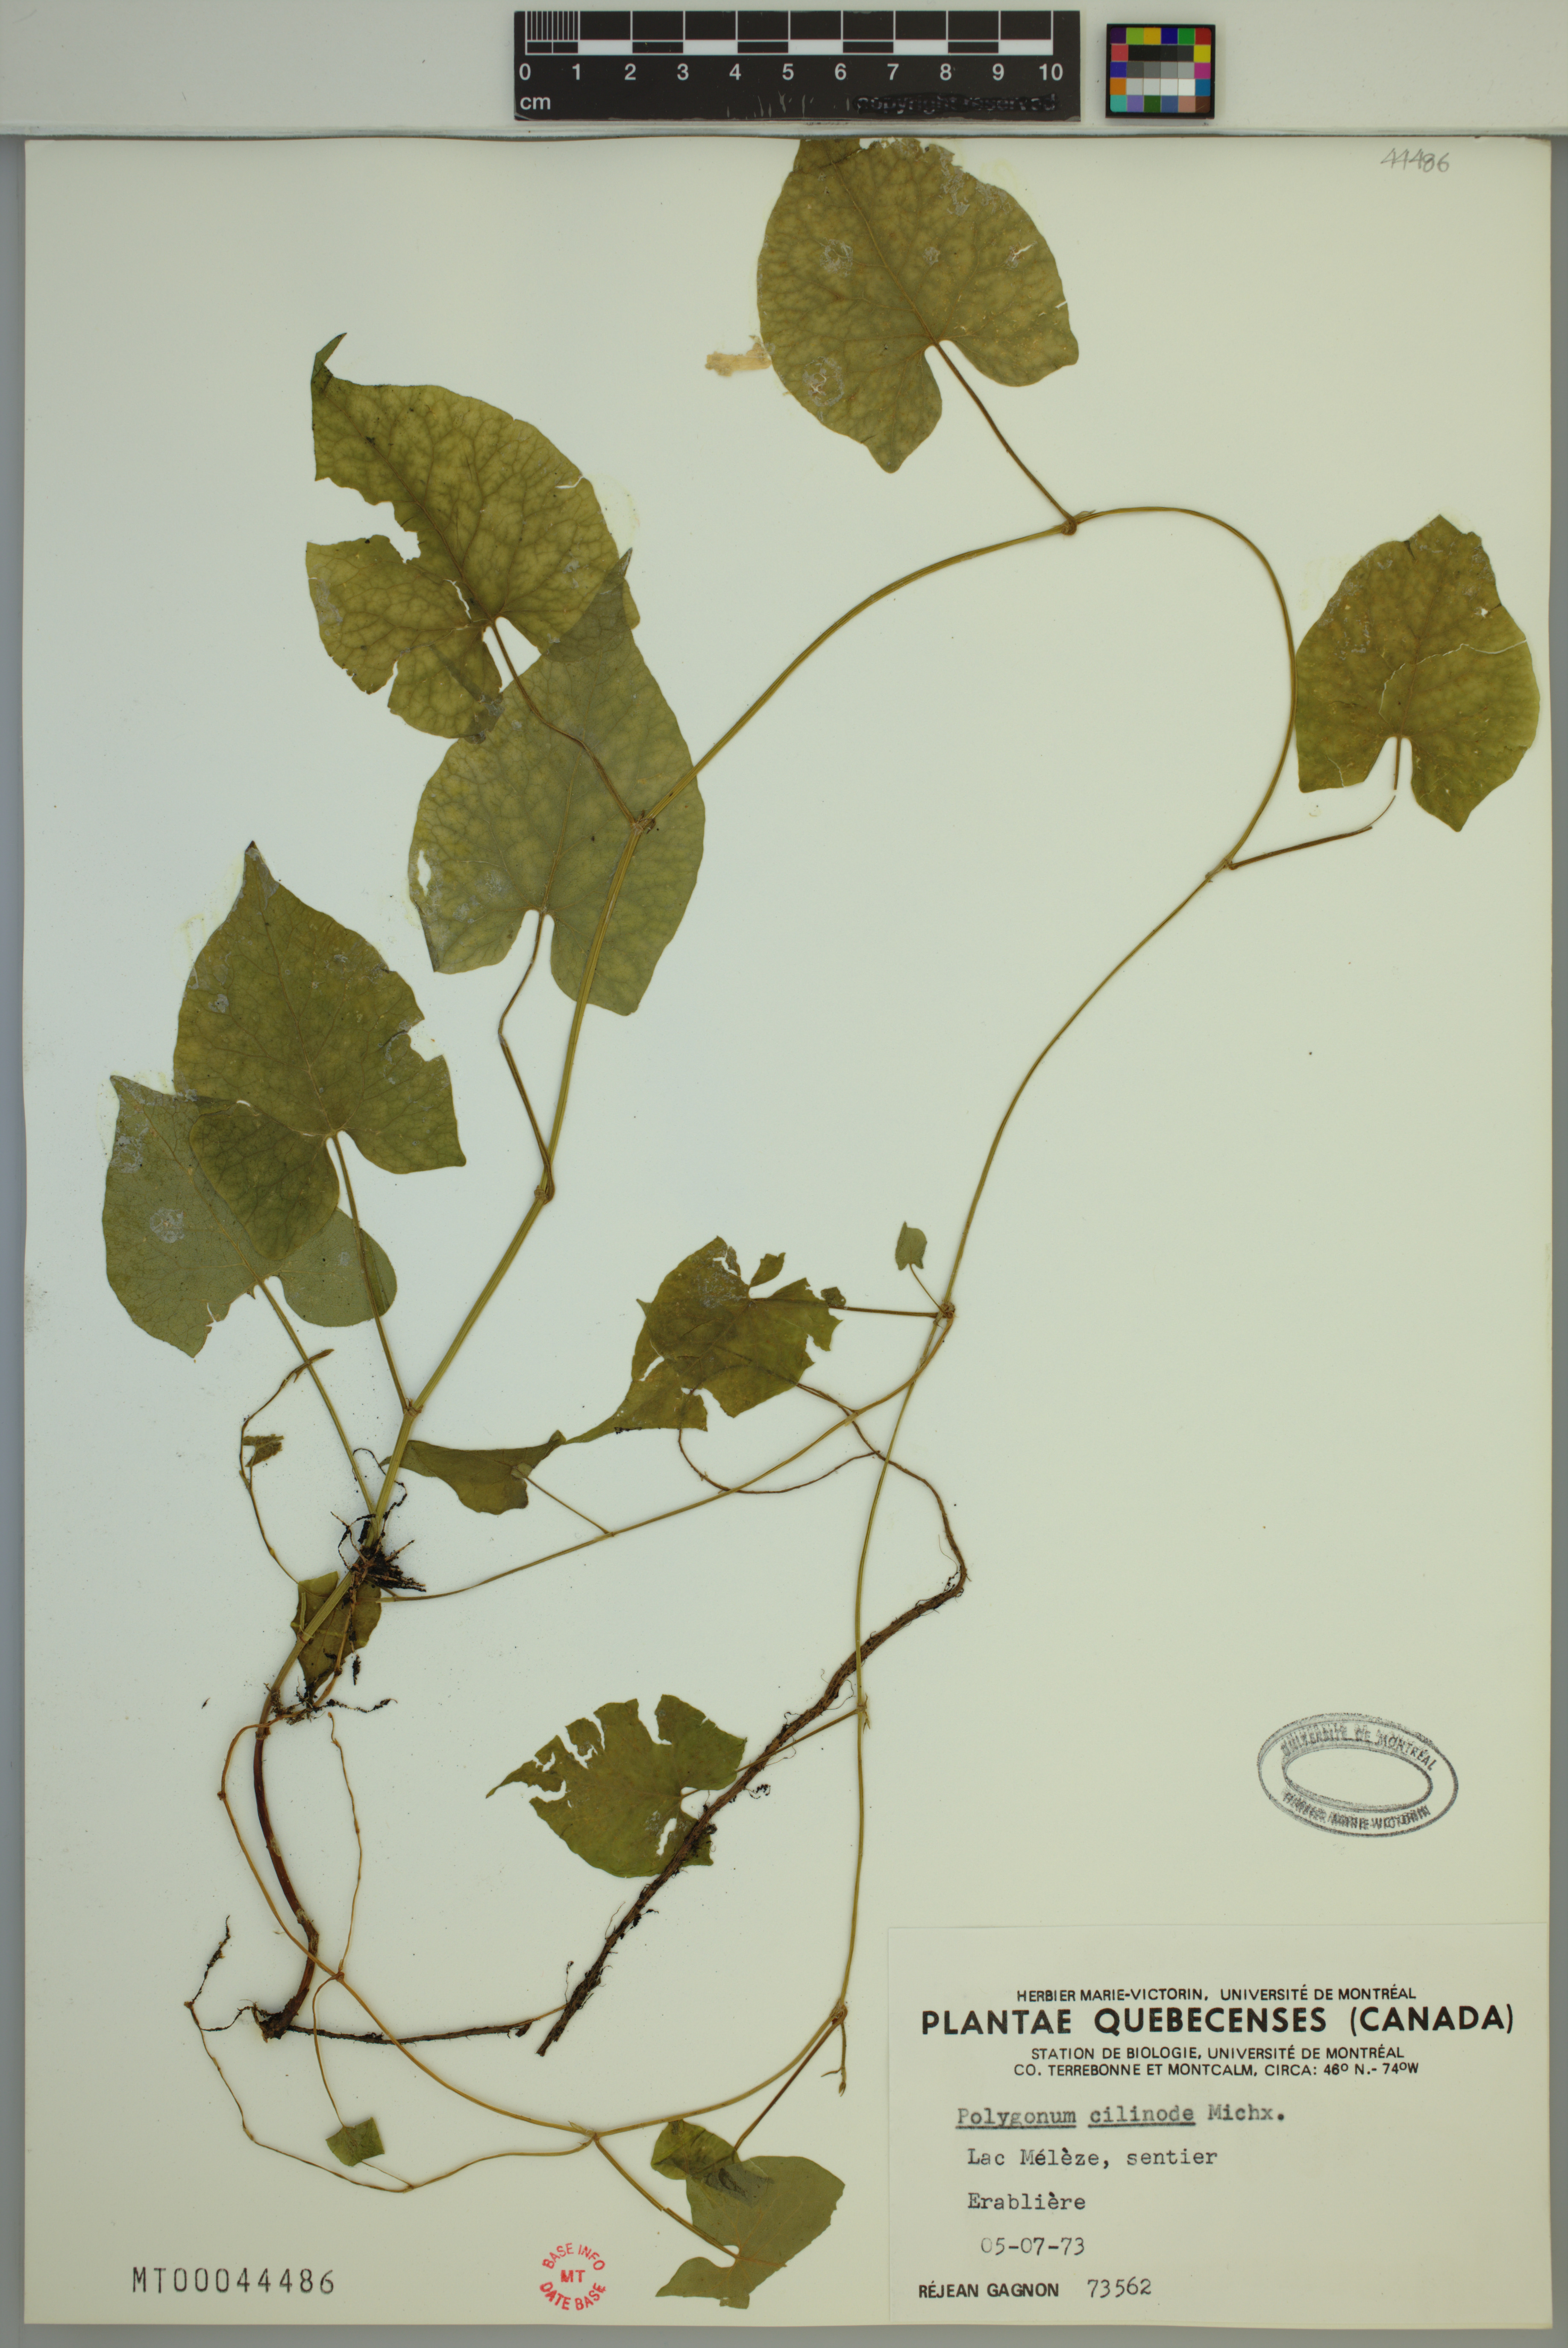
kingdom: Plantae
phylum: Tracheophyta
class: Magnoliopsida
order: Caryophyllales
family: Polygonaceae
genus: Parogonum
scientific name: Parogonum ciliinode
